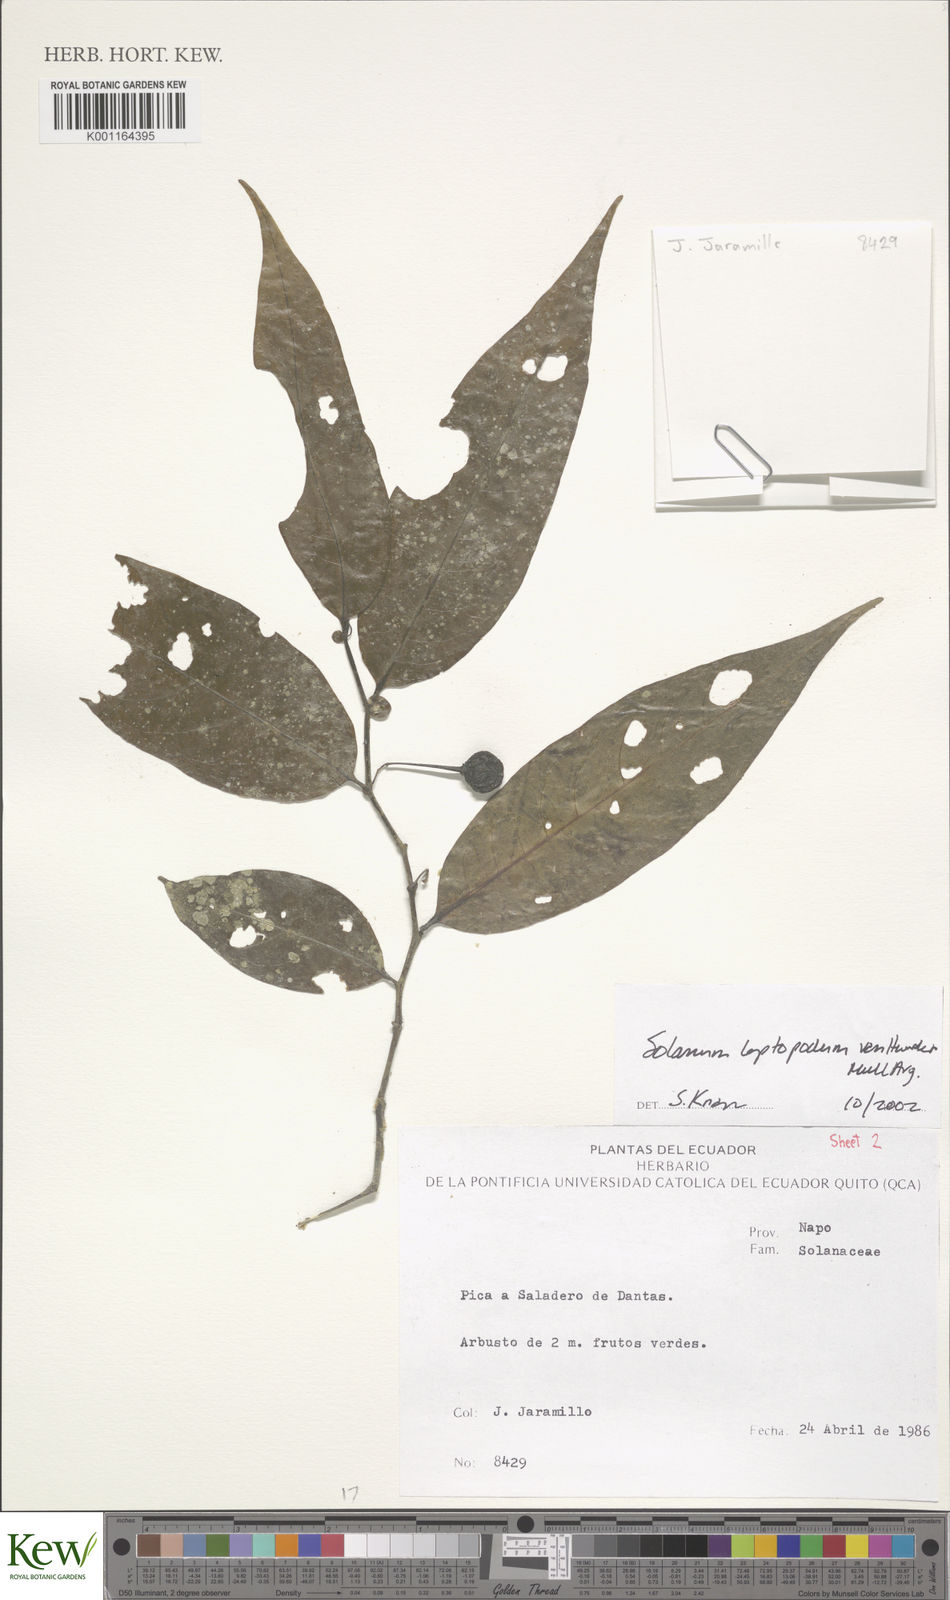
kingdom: Plantae
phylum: Tracheophyta
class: Magnoliopsida
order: Solanales
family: Solanaceae
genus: Solanum
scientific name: Solanum leptopodum
